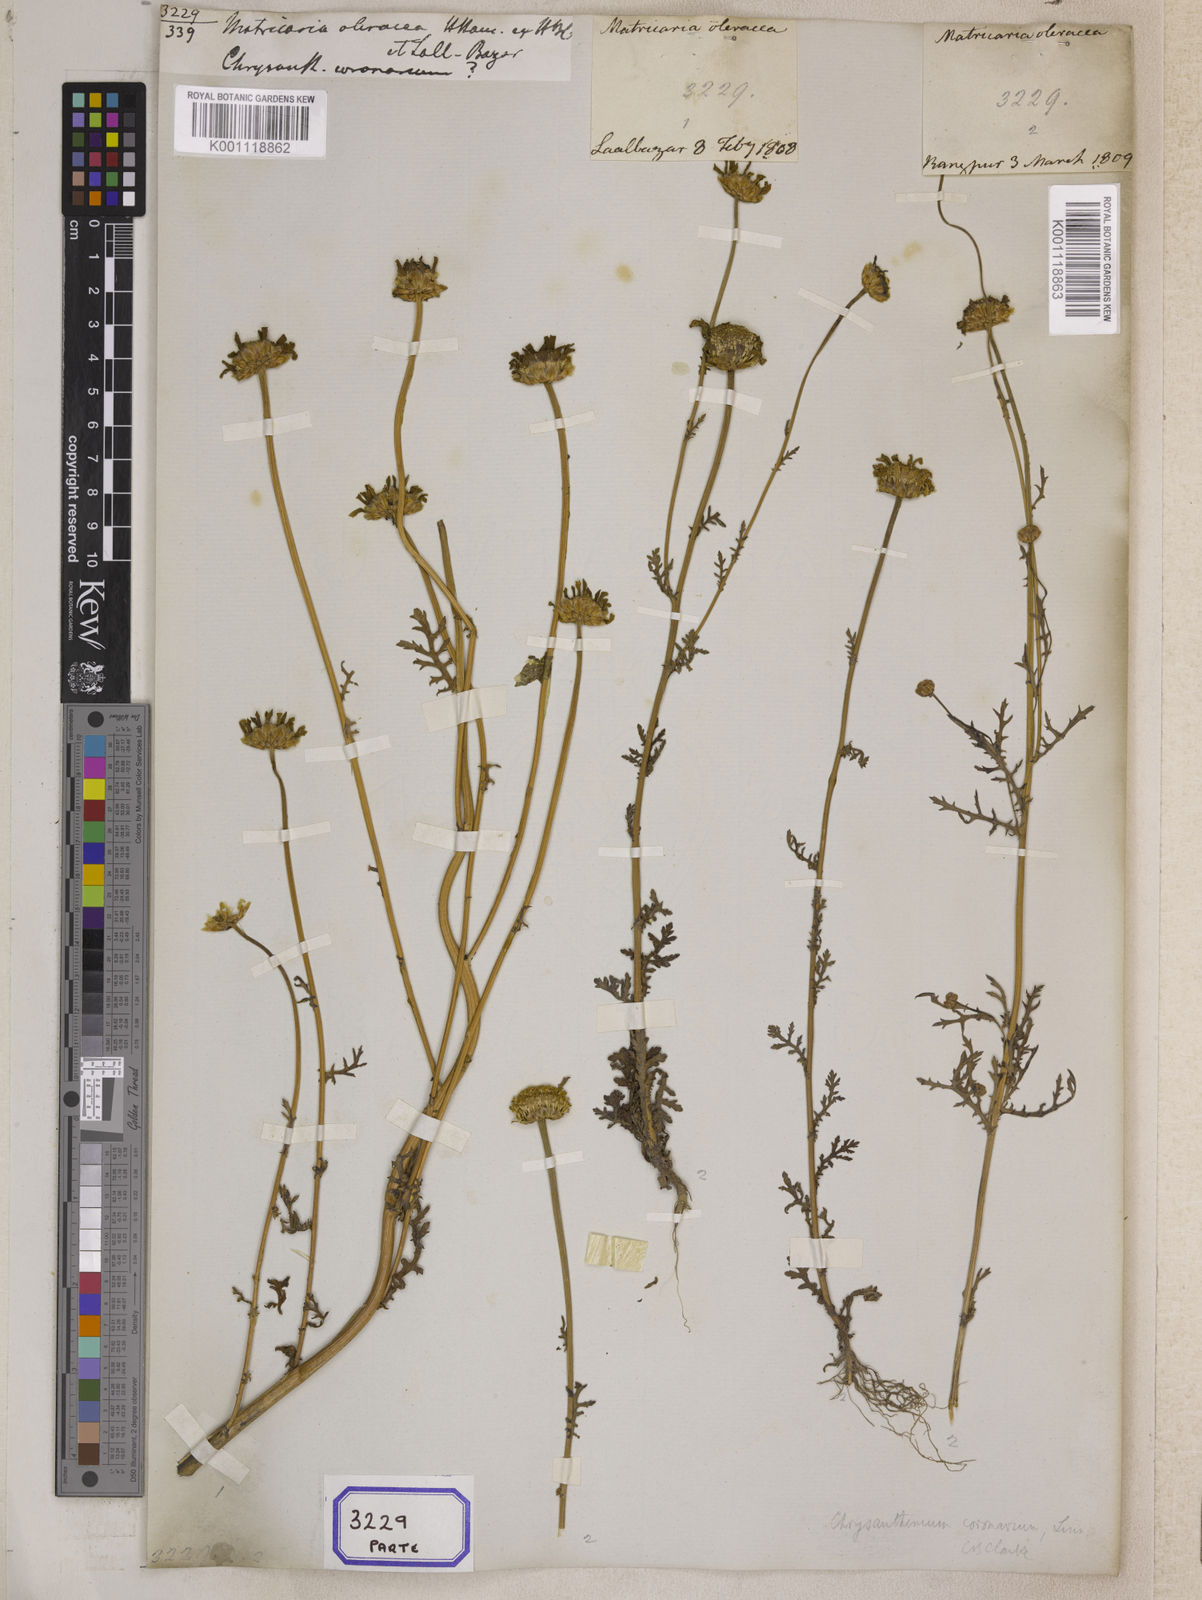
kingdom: Plantae
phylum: Tracheophyta
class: Magnoliopsida
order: Asterales
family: Asteraceae
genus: Glebionis
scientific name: Glebionis coronaria
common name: Crowndaisy
